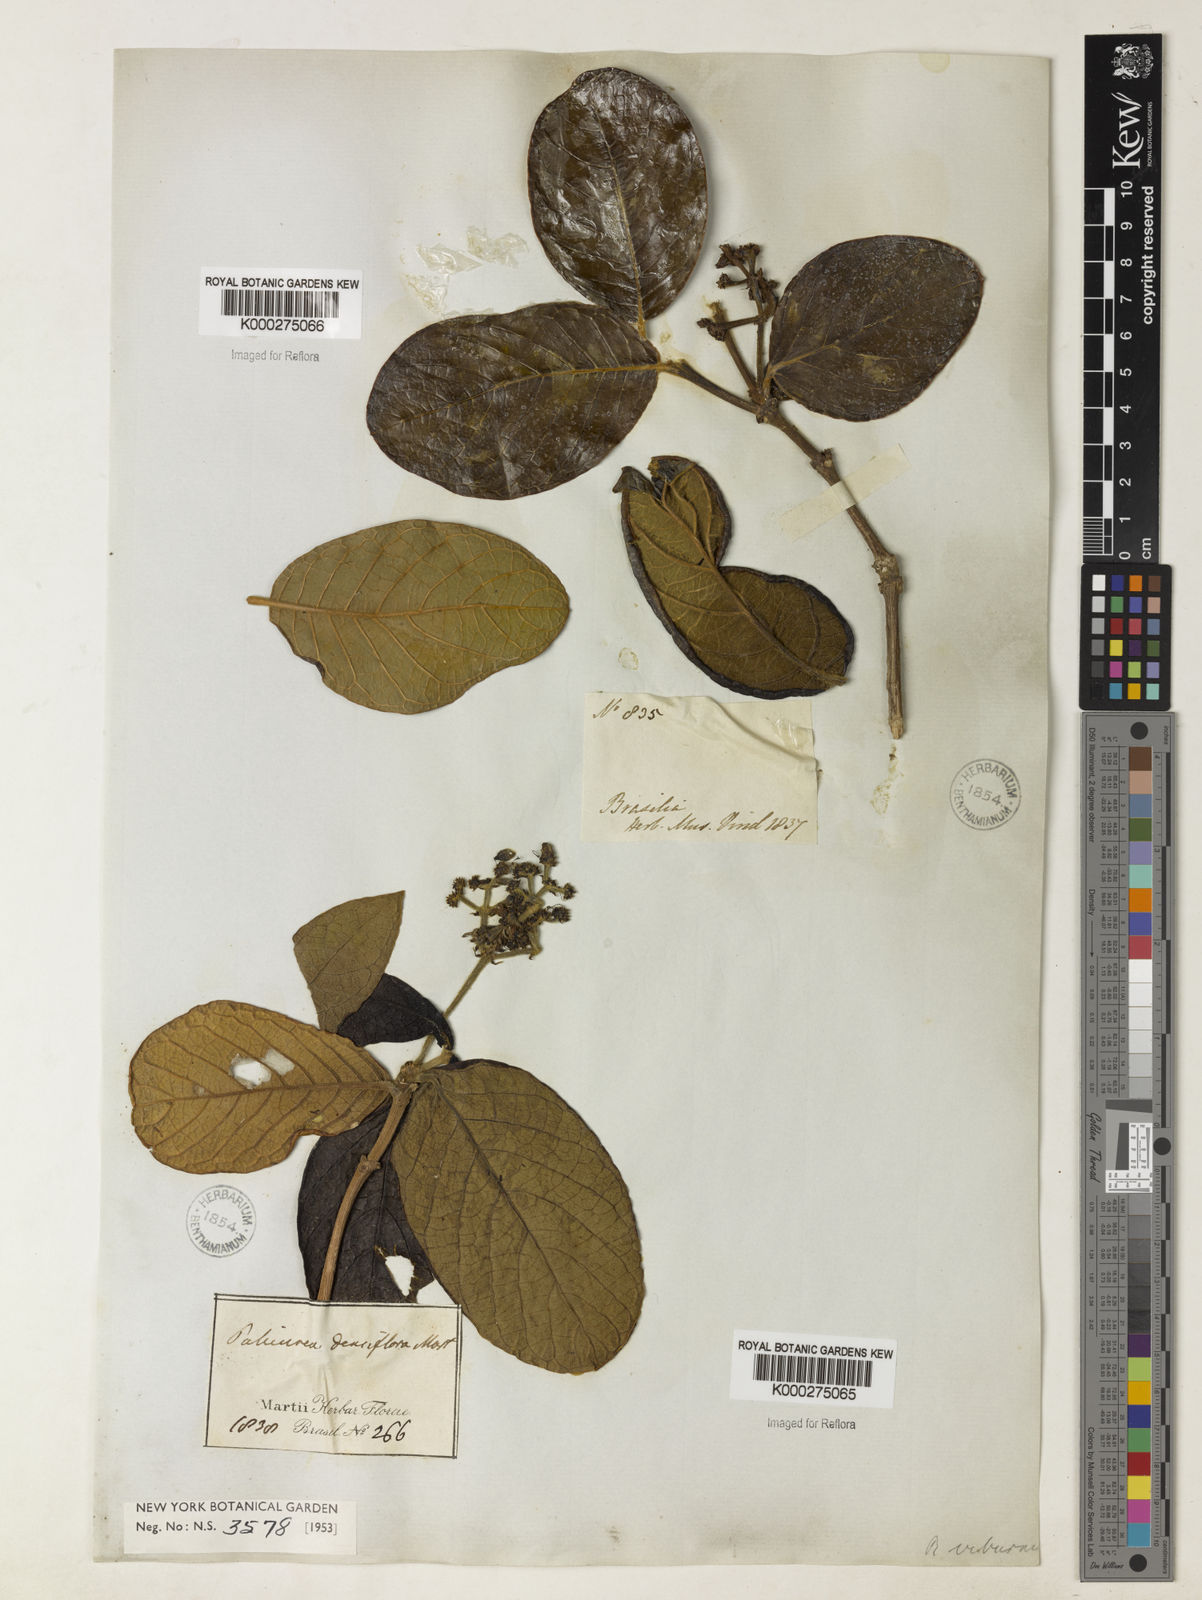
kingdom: Plantae
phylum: Tracheophyta
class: Magnoliopsida
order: Gentianales
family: Rubiaceae
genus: Rudgea
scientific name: Rudgea viburnoides
